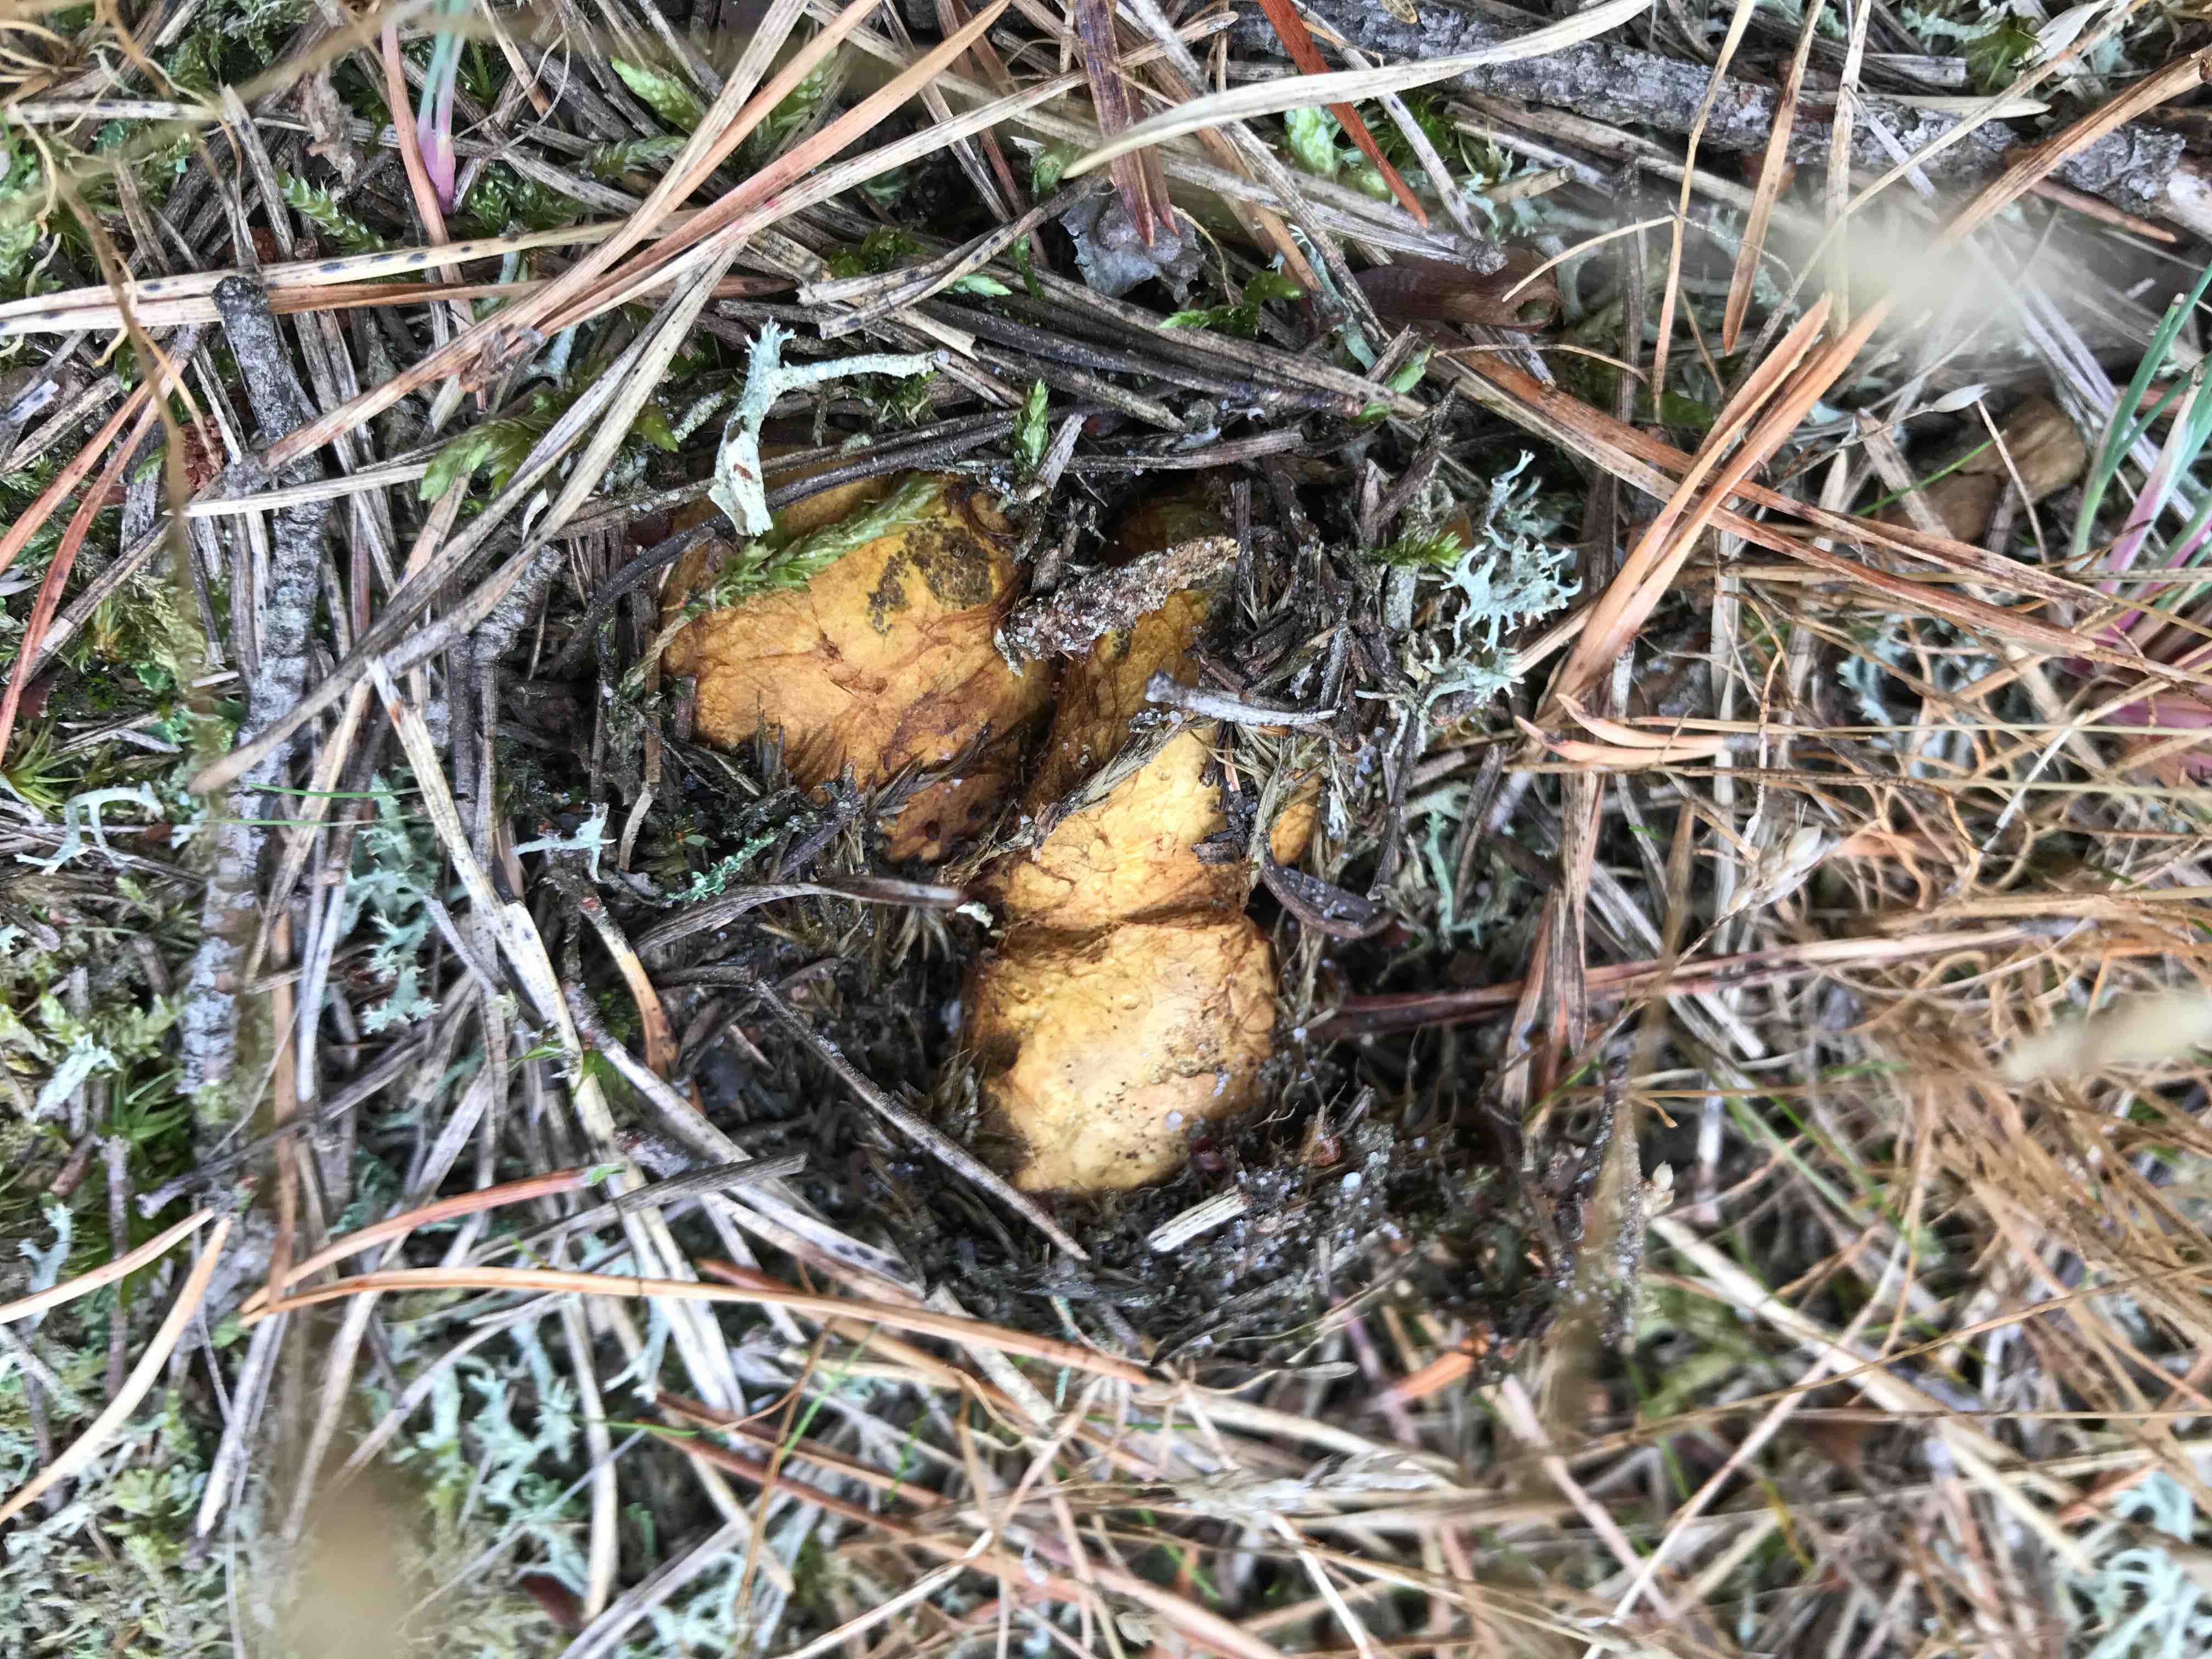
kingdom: Fungi
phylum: Basidiomycota
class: Agaricomycetes
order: Boletales
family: Rhizopogonaceae
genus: Rhizopogon
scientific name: Rhizopogon obtextus
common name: gul skægtrøffel
